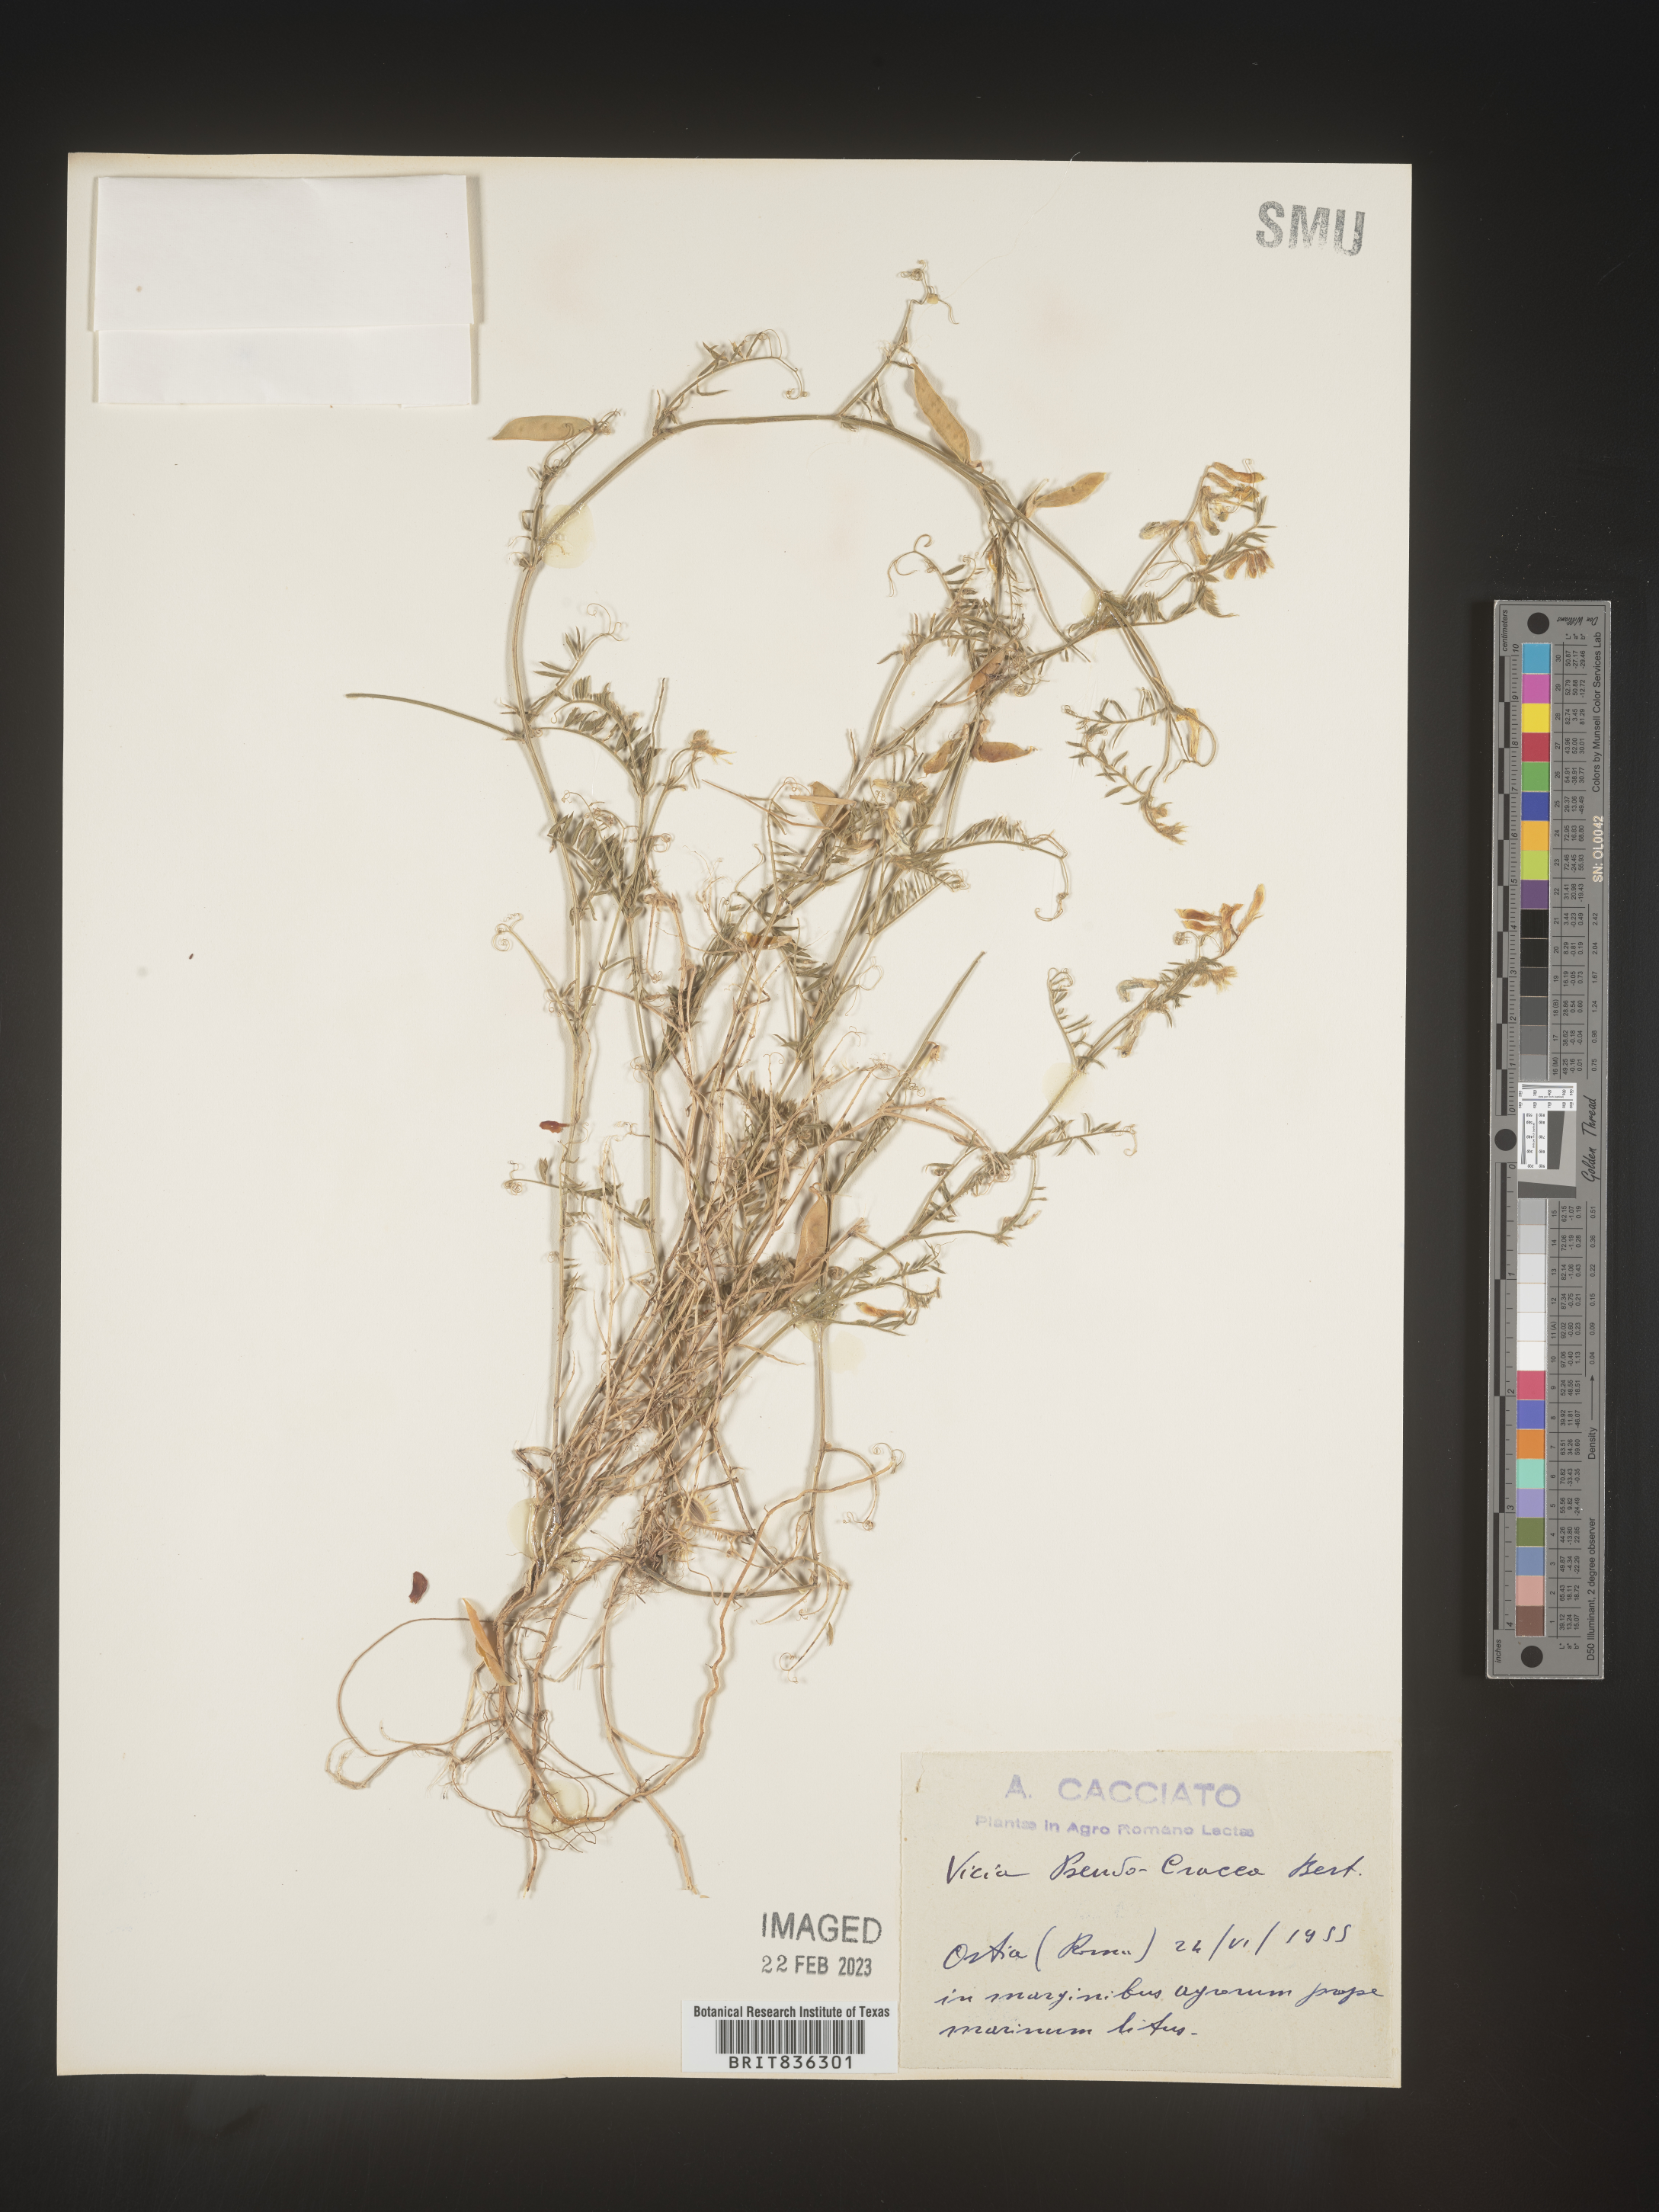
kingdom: Plantae
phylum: Tracheophyta
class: Magnoliopsida
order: Fabales
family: Fabaceae
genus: Vicia
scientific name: Vicia
